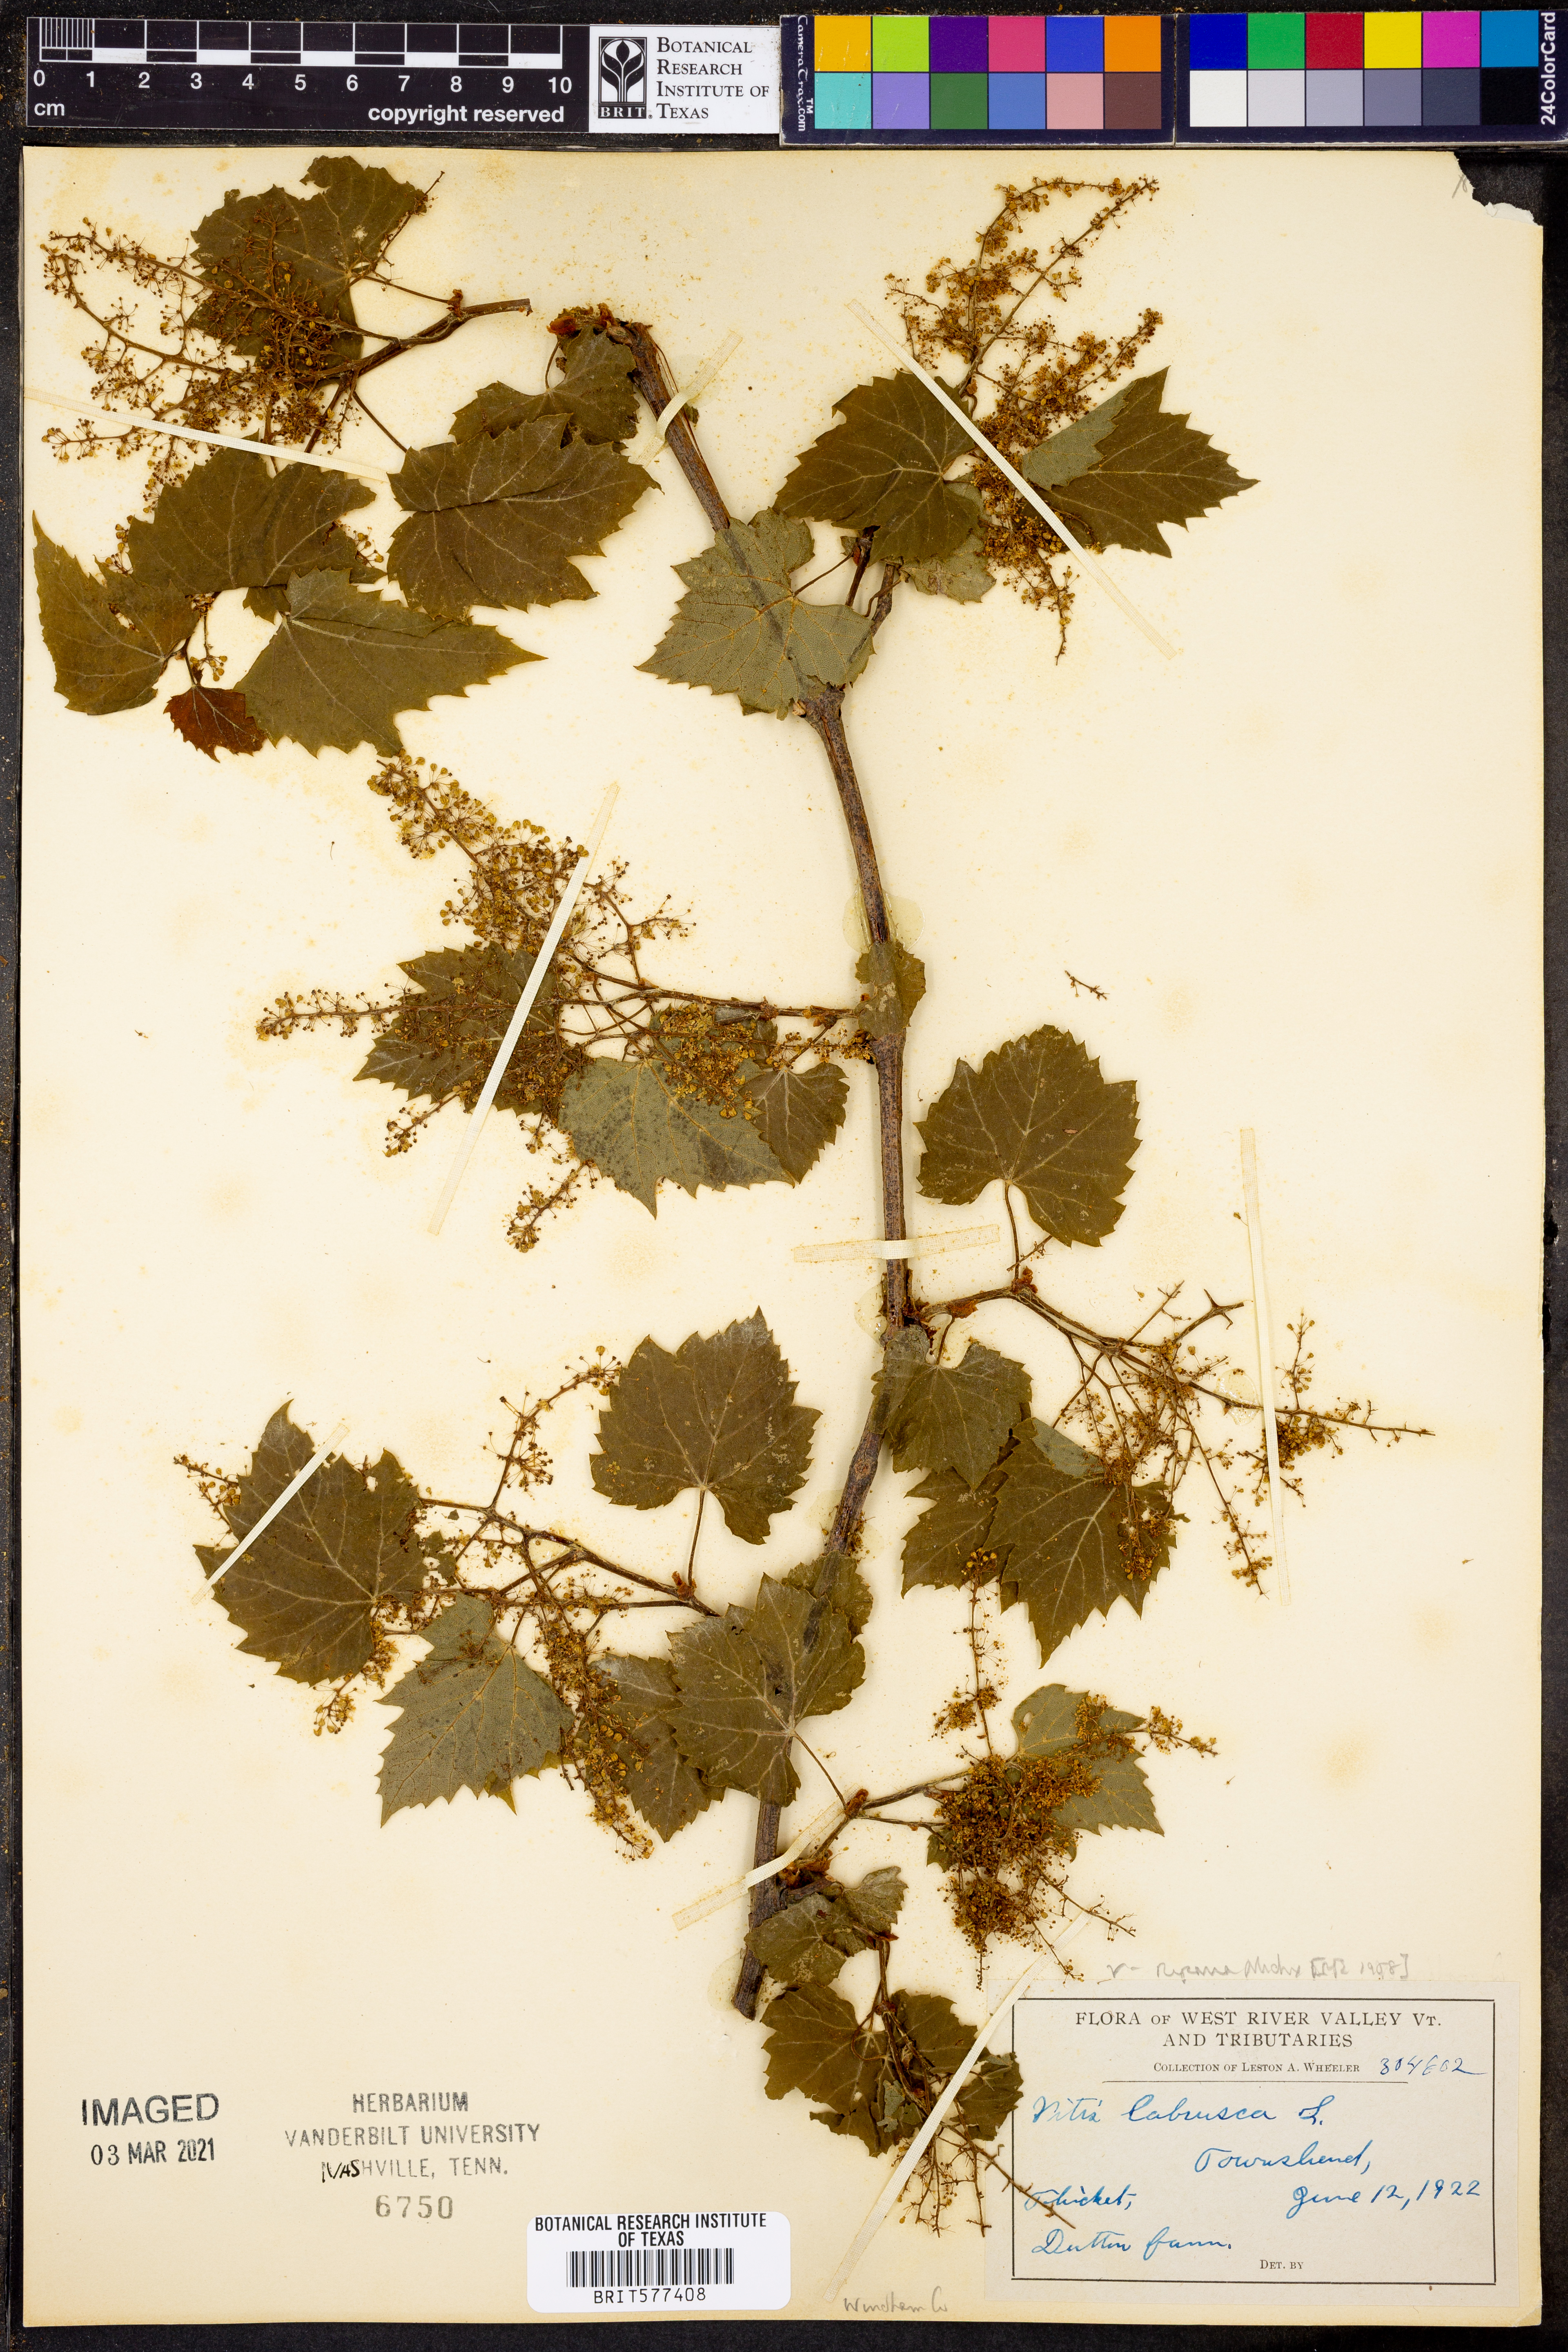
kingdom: Plantae
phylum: Tracheophyta
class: Magnoliopsida
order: Vitales
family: Vitaceae
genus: Vitis
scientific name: Vitis labrusca
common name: Concord grape
